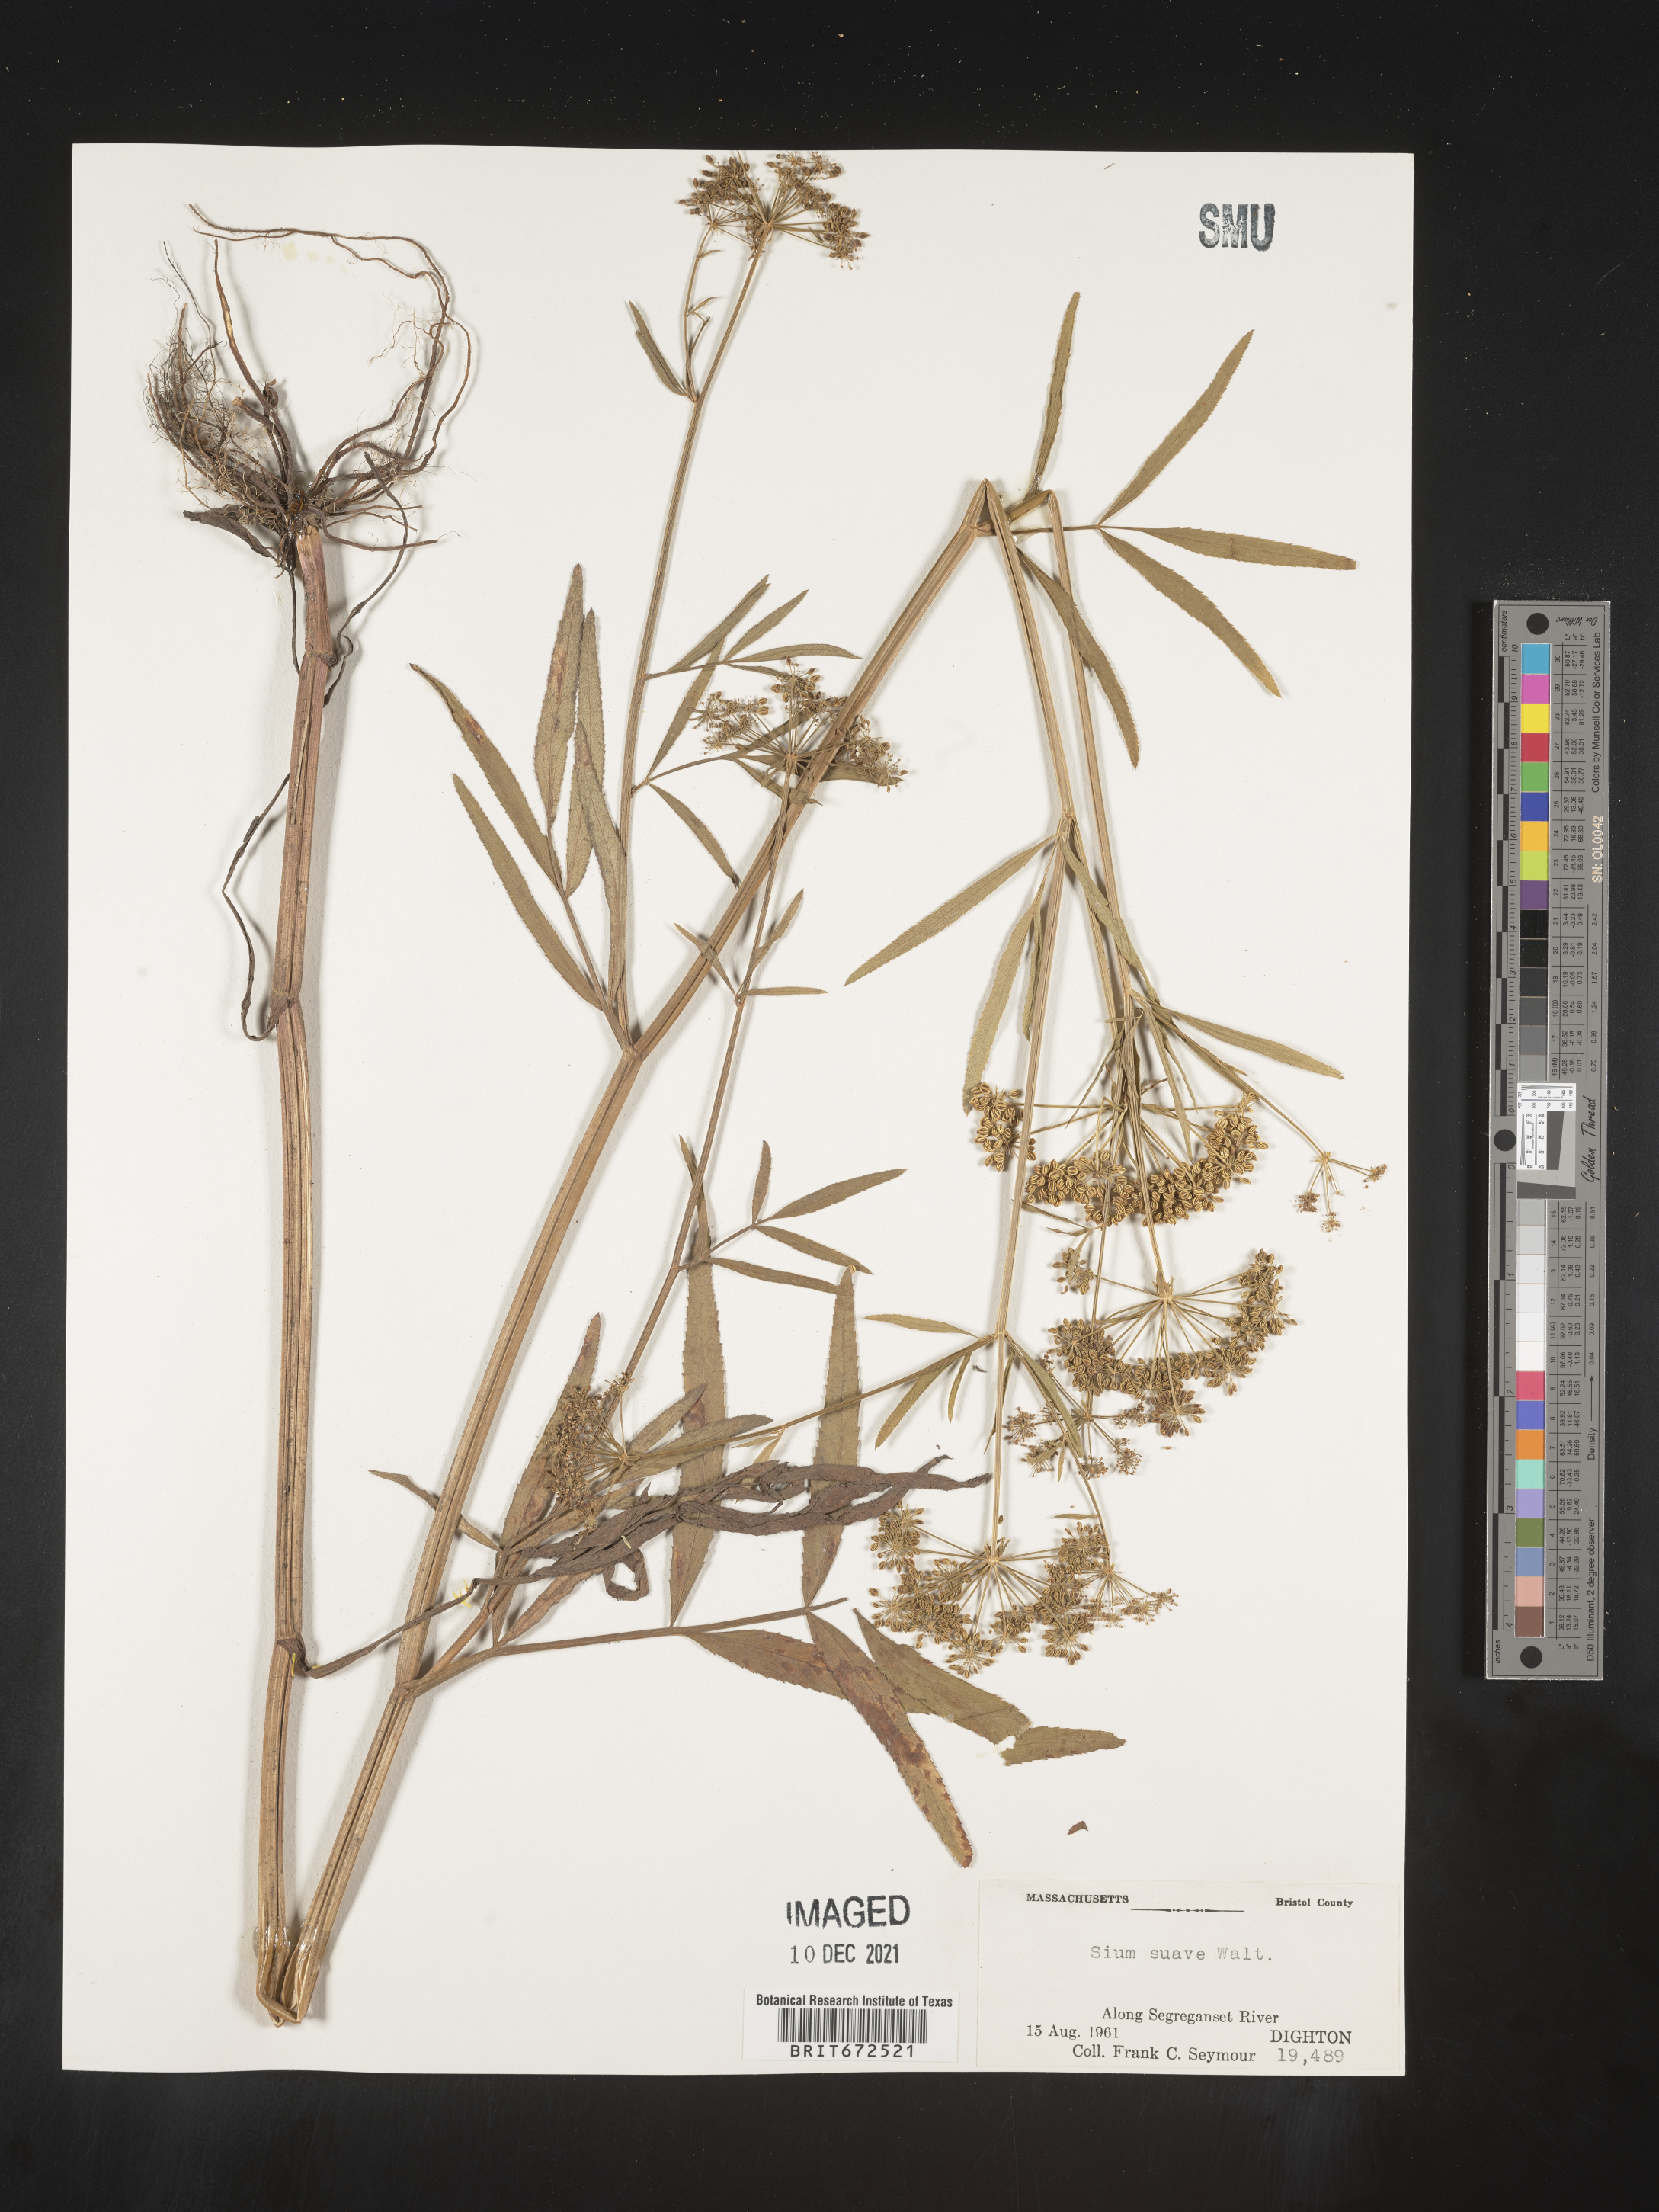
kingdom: Plantae
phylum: Tracheophyta
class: Magnoliopsida
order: Apiales
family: Apiaceae
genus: Sium
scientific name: Sium suave
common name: Hemlock water-parsnip
